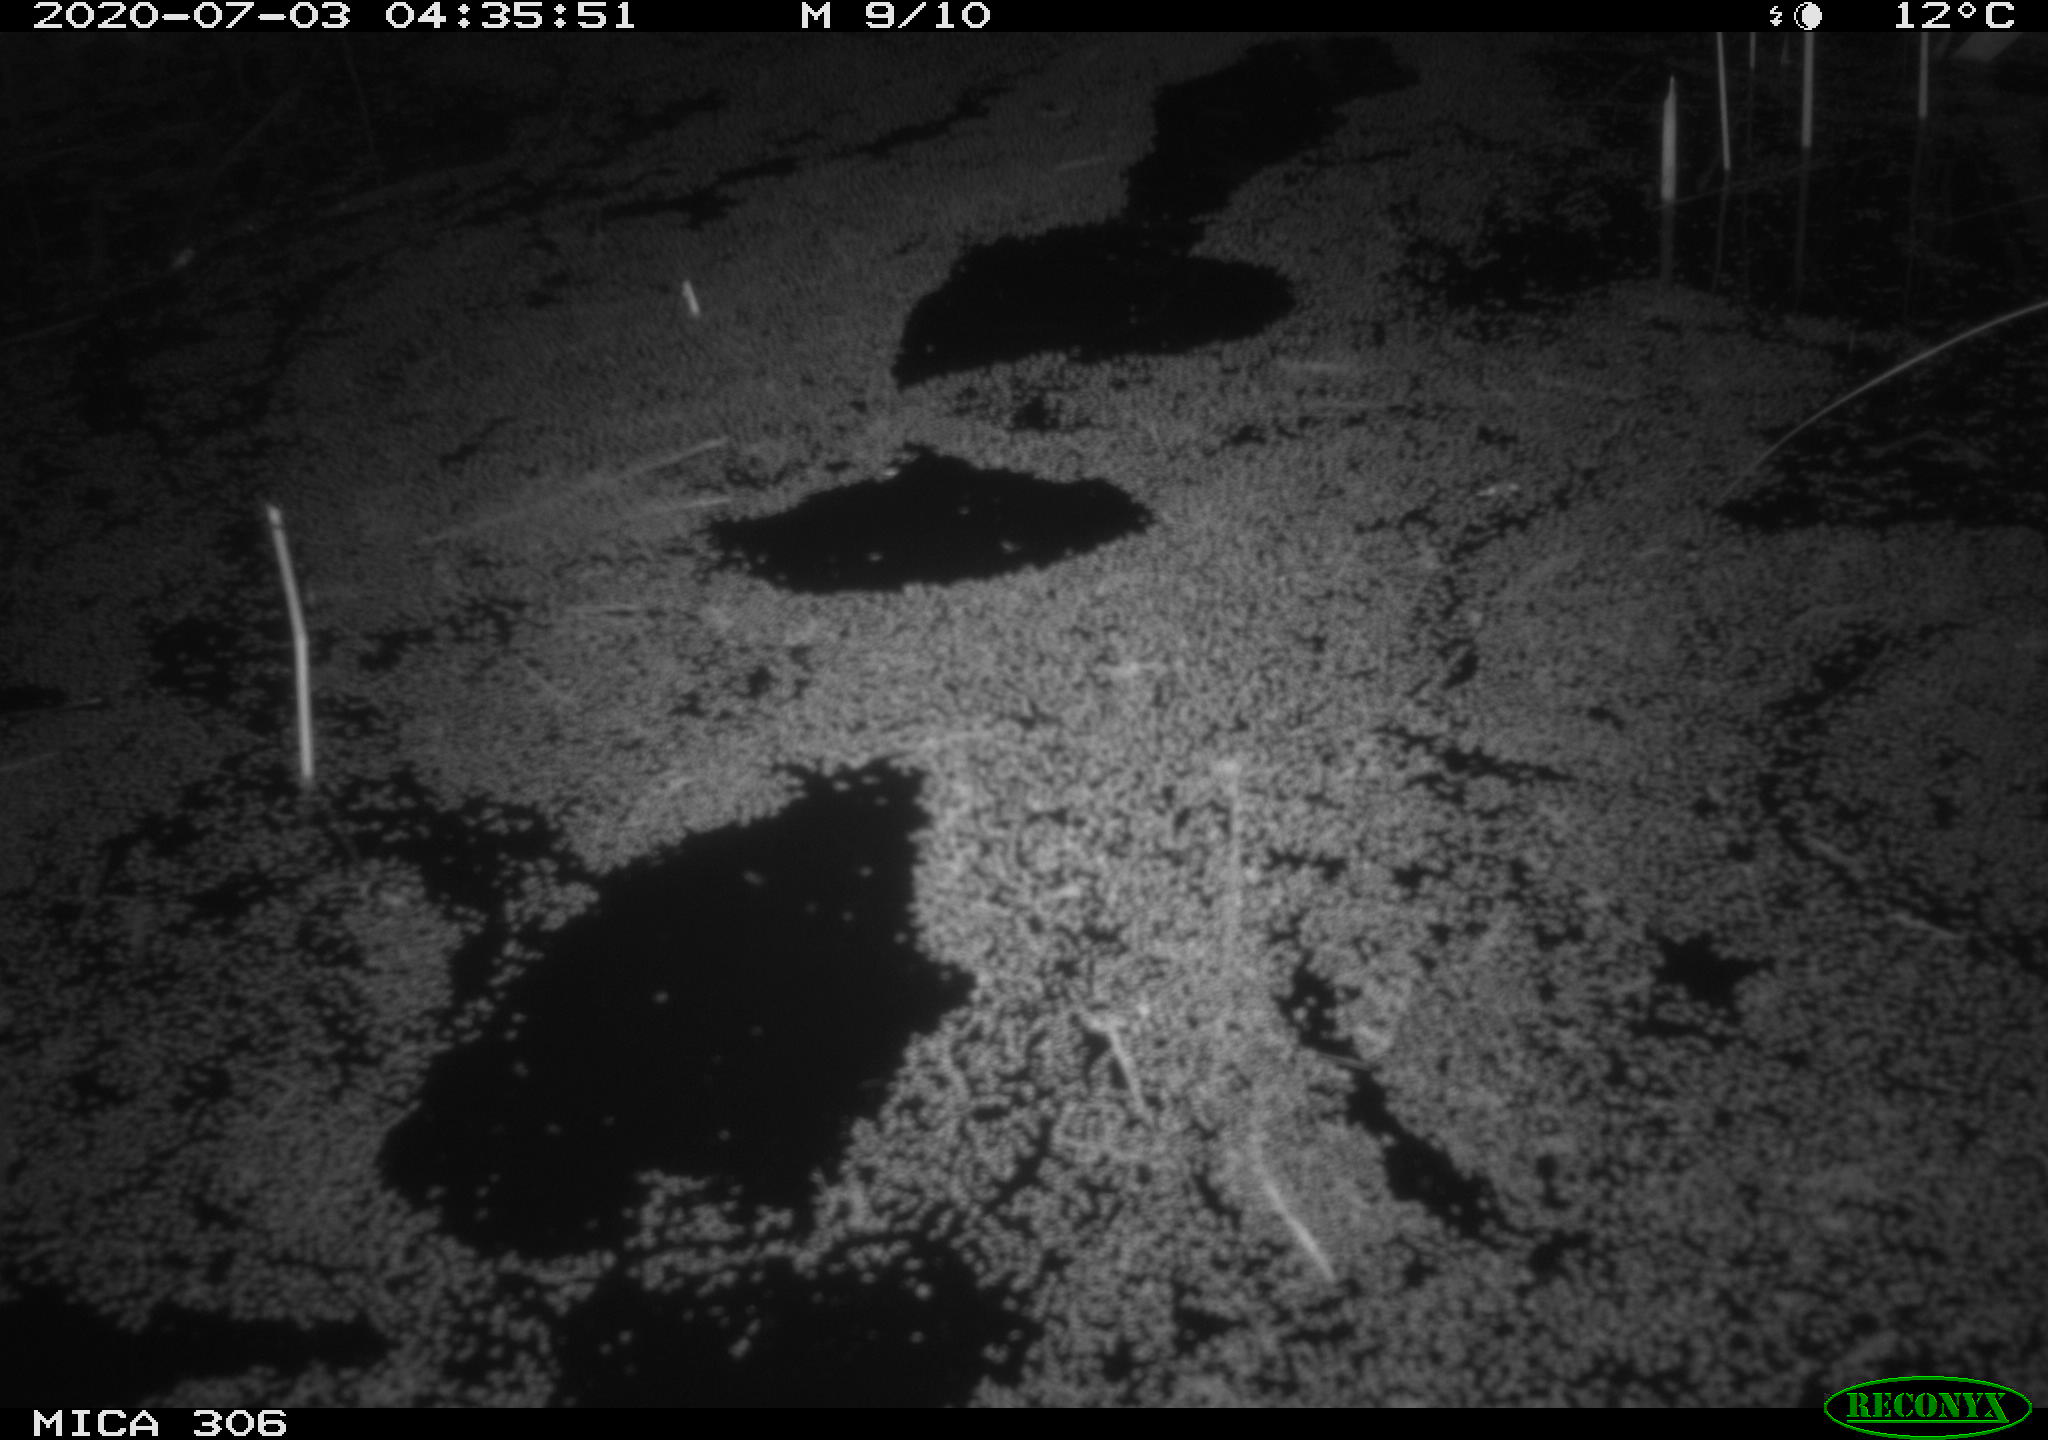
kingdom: Animalia
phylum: Chordata
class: Mammalia
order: Rodentia
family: Muridae
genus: Rattus
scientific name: Rattus norvegicus
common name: Brown rat
